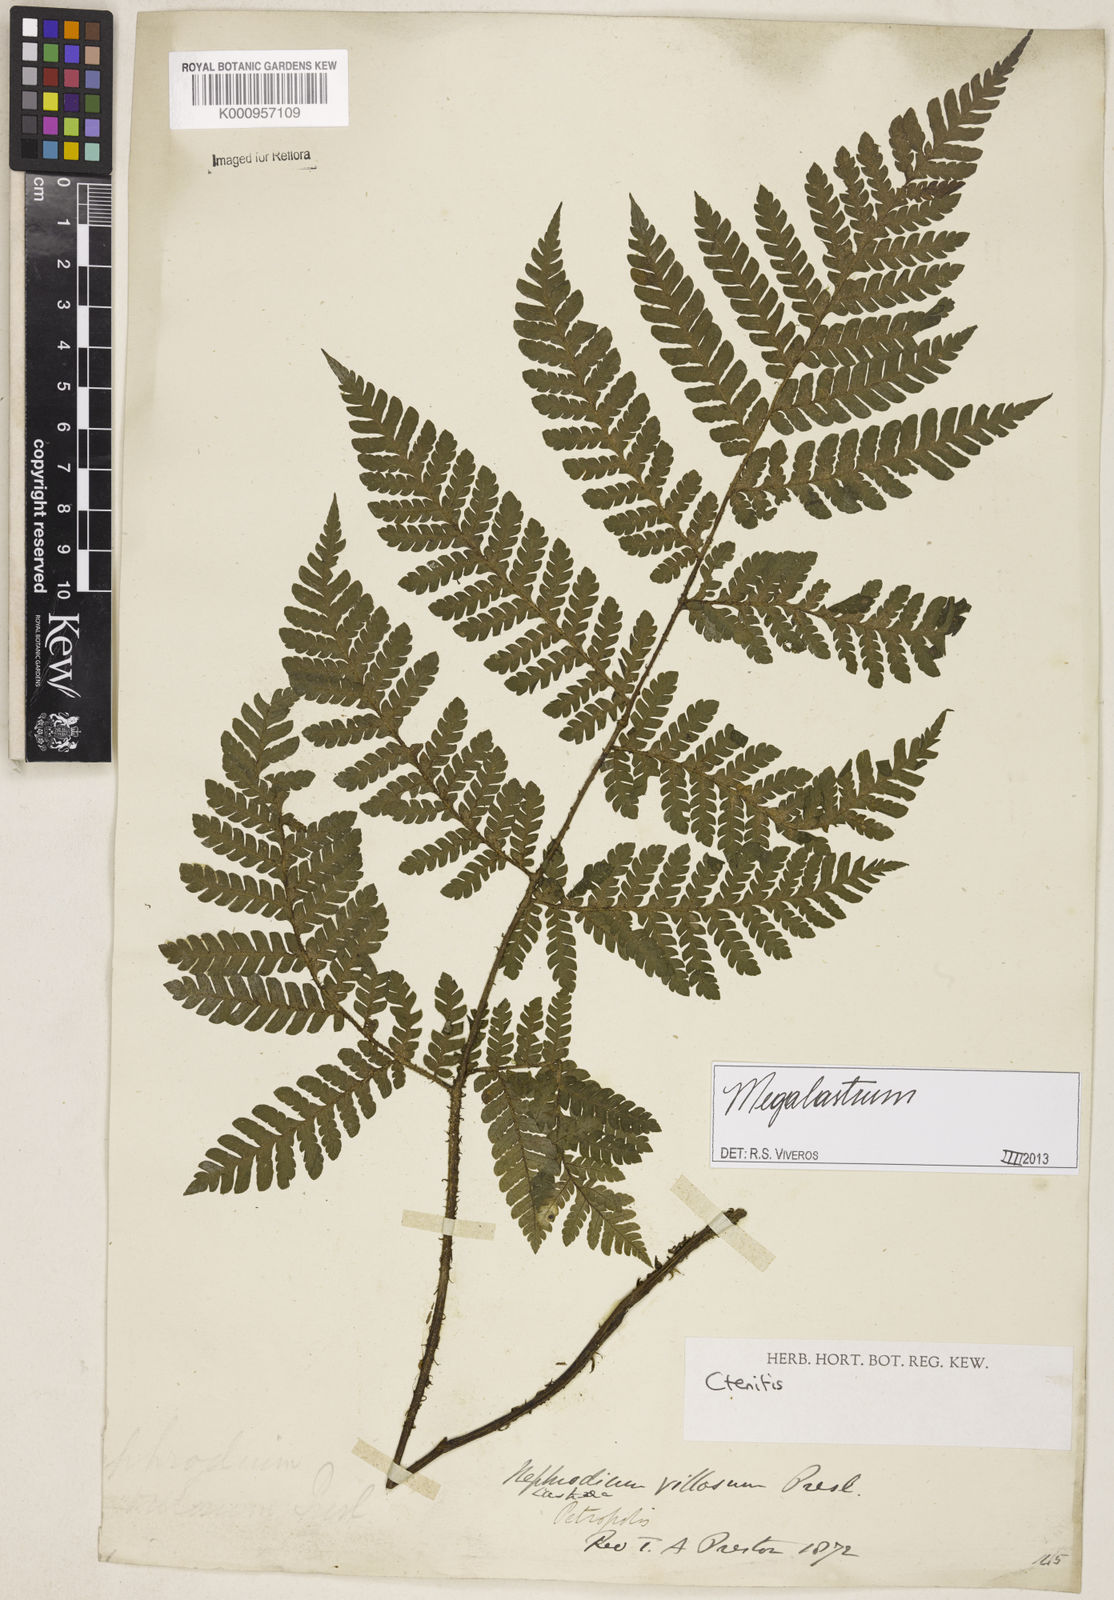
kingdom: Plantae
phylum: Tracheophyta
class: Polypodiopsida
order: Polypodiales
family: Dryopteridaceae
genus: Megalastrum
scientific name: Megalastrum
